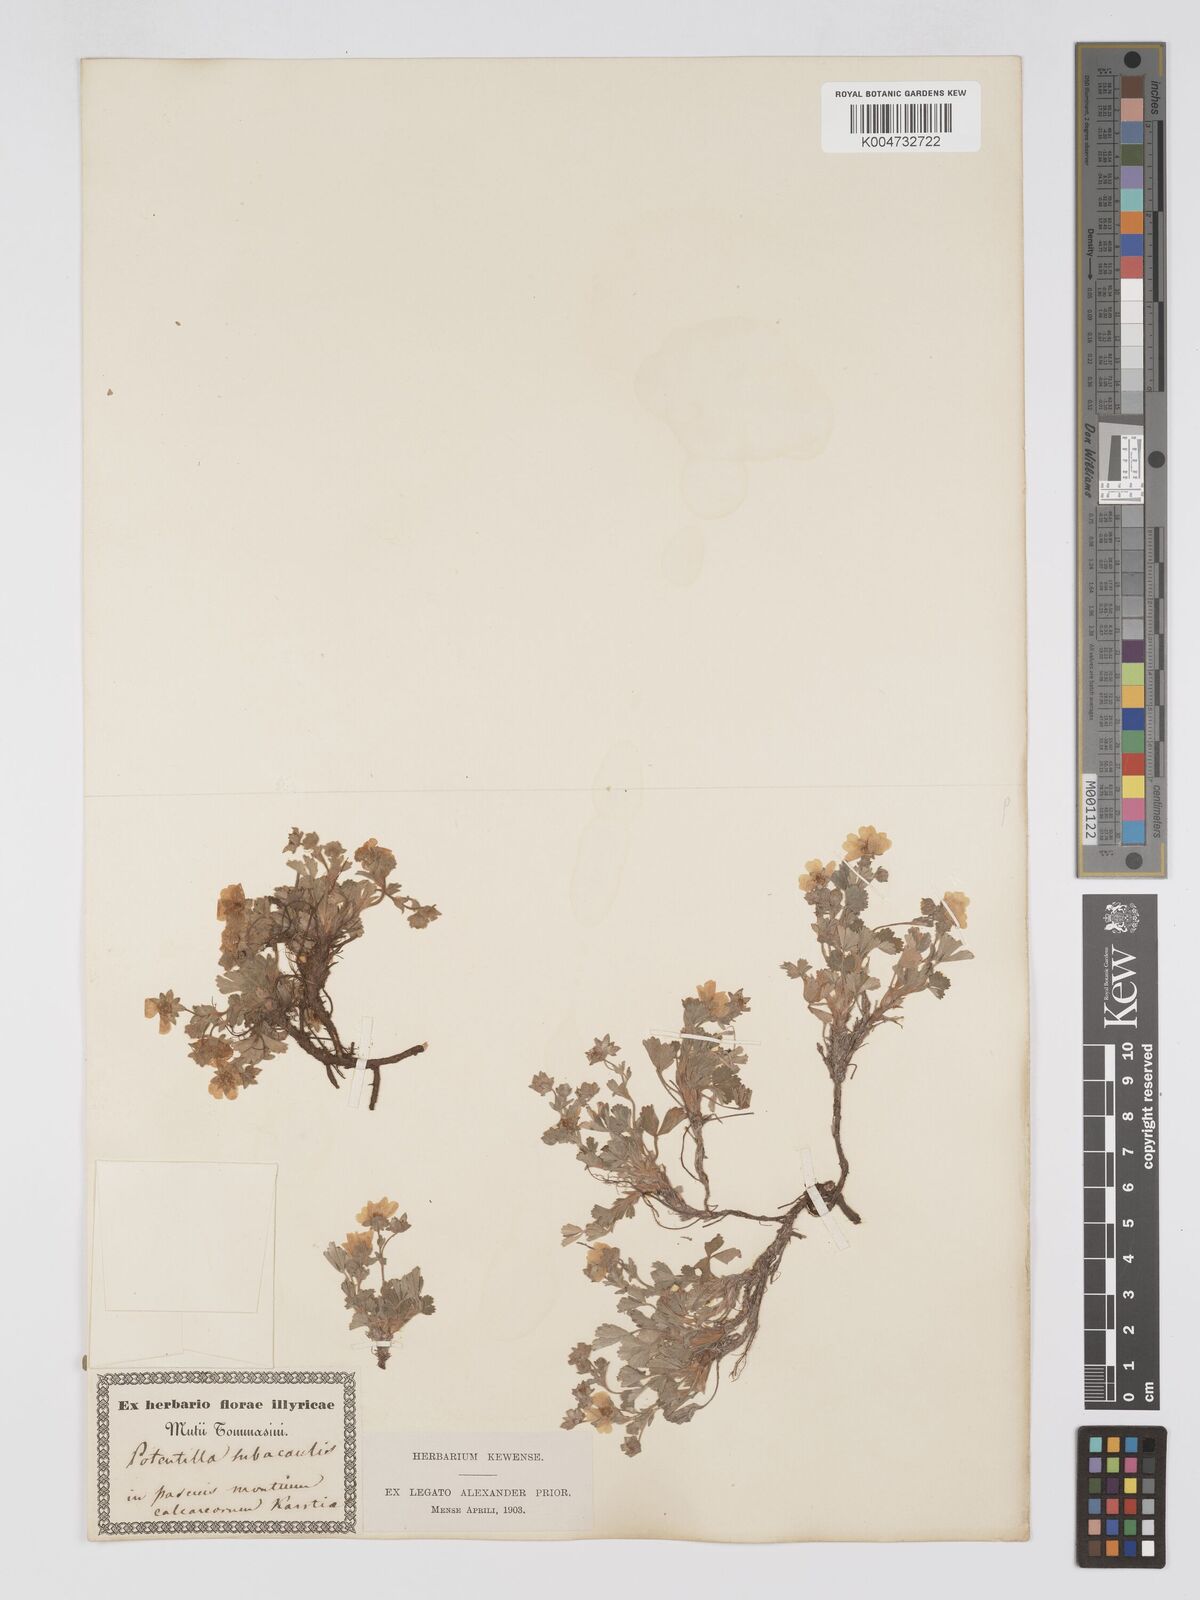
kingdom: Plantae
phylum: Tracheophyta
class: Magnoliopsida
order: Rosales
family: Rosaceae
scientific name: Rosaceae
